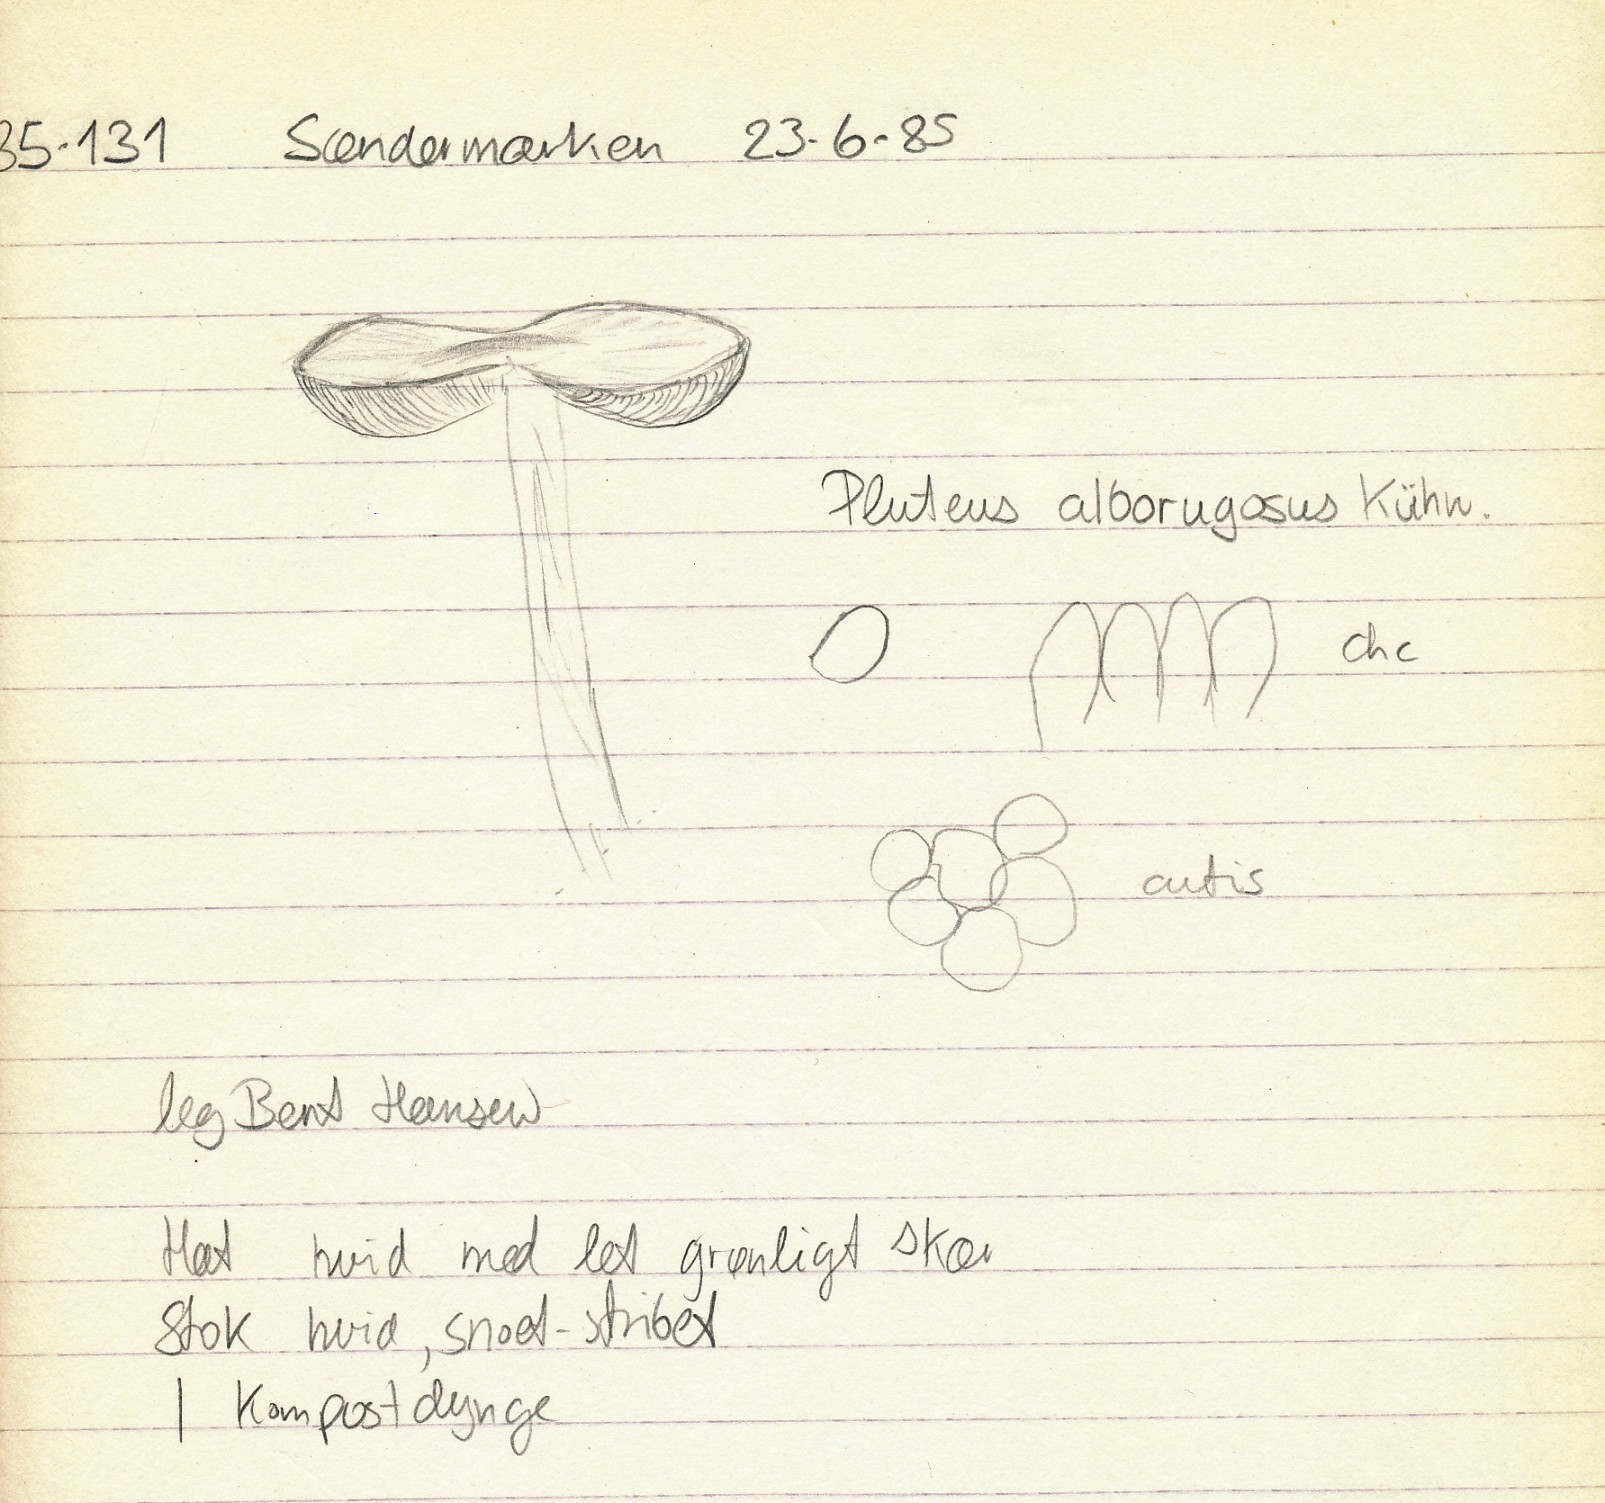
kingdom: Fungi
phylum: Basidiomycota
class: Agaricomycetes
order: Agaricales
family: Pluteaceae
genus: Pluteus
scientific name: Pluteus inquilinus
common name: skær skærmhat
